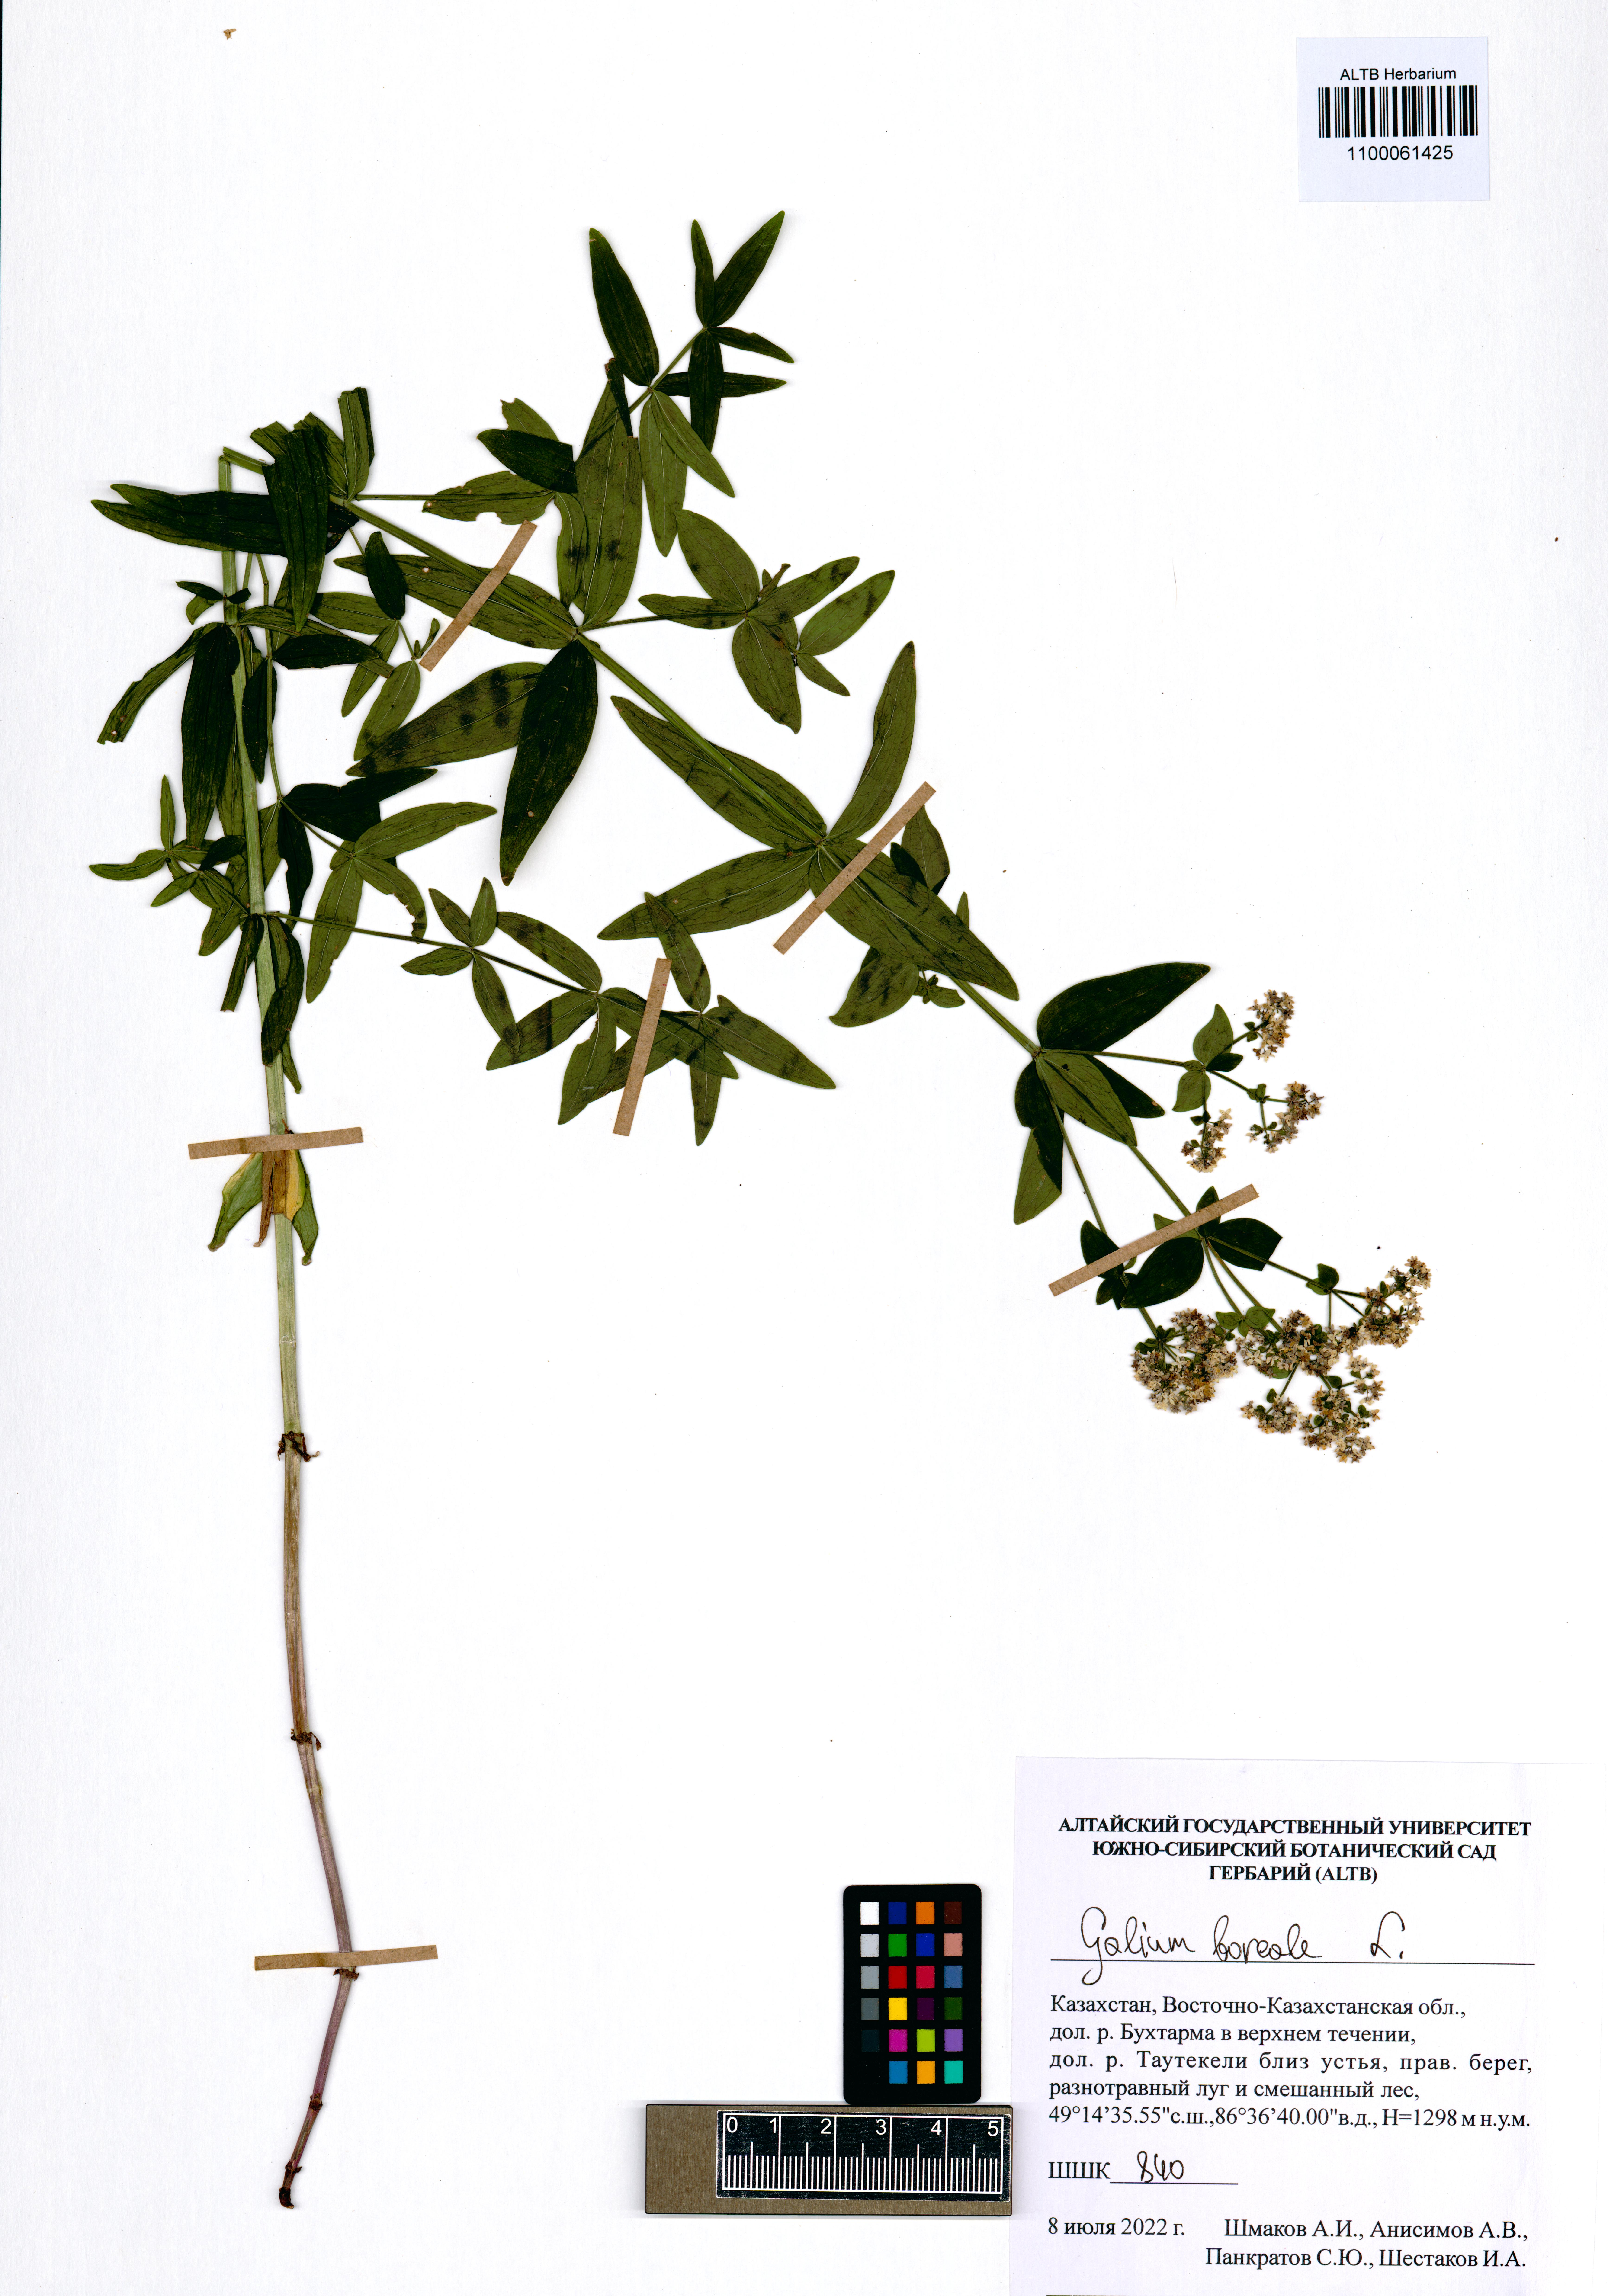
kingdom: Plantae
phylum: Tracheophyta
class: Magnoliopsida
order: Gentianales
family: Rubiaceae
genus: Galium
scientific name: Galium boreale
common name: Northern bedstraw
